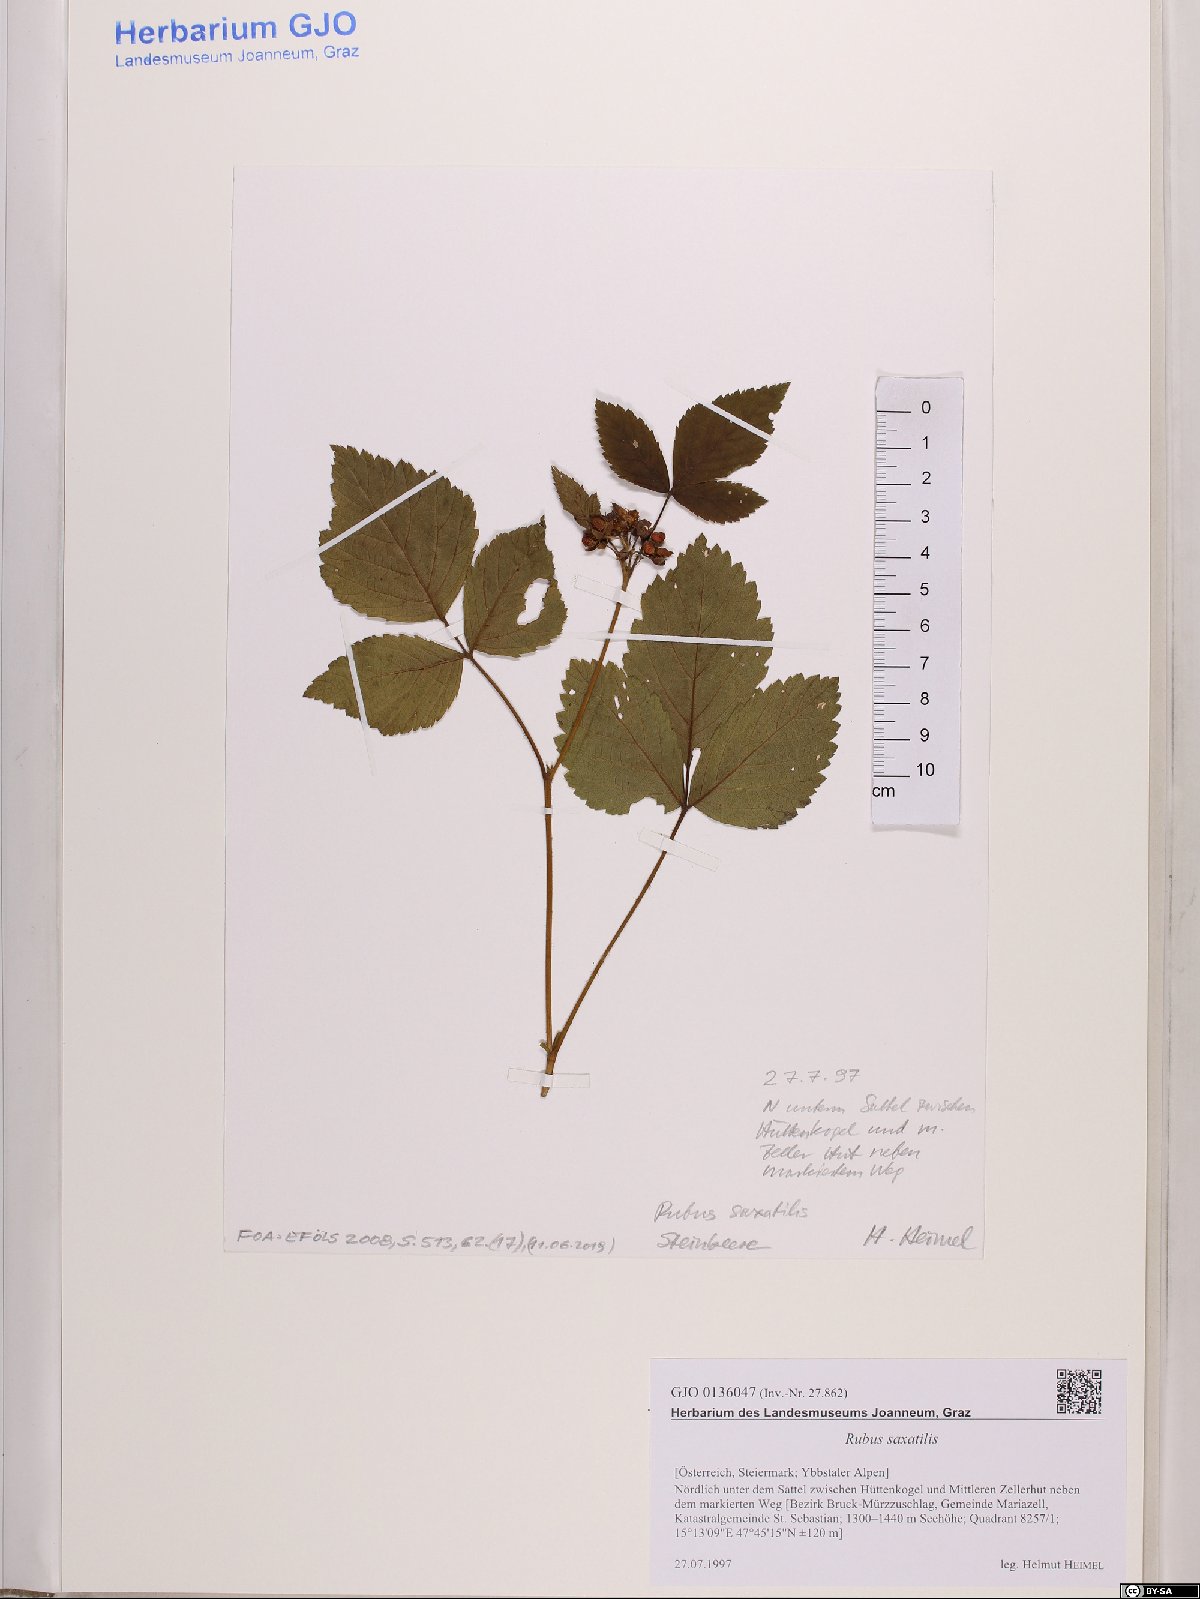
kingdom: Plantae
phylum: Tracheophyta
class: Magnoliopsida
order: Rosales
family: Rosaceae
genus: Rubus
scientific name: Rubus saxatilis
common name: Stone bramble
